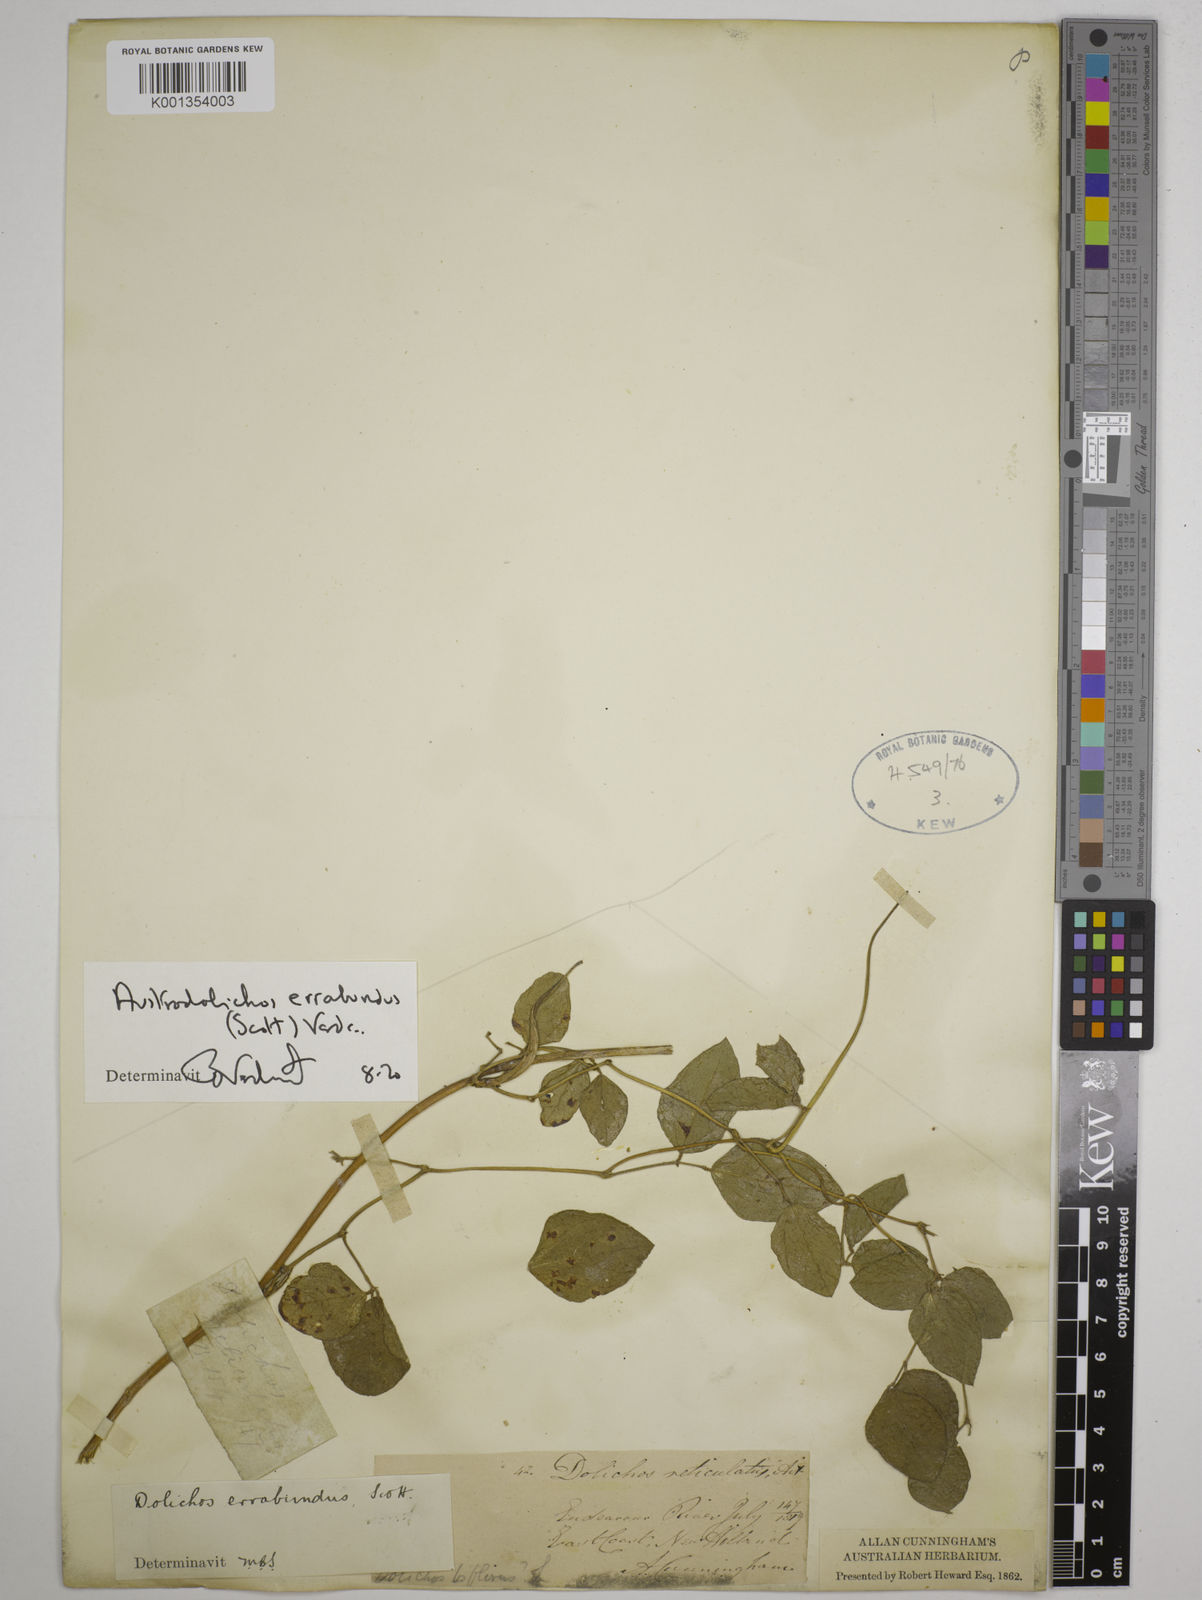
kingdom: Plantae
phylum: Tracheophyta
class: Magnoliopsida
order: Fabales
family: Fabaceae
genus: Austrodolichos
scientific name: Austrodolichos errabundus
